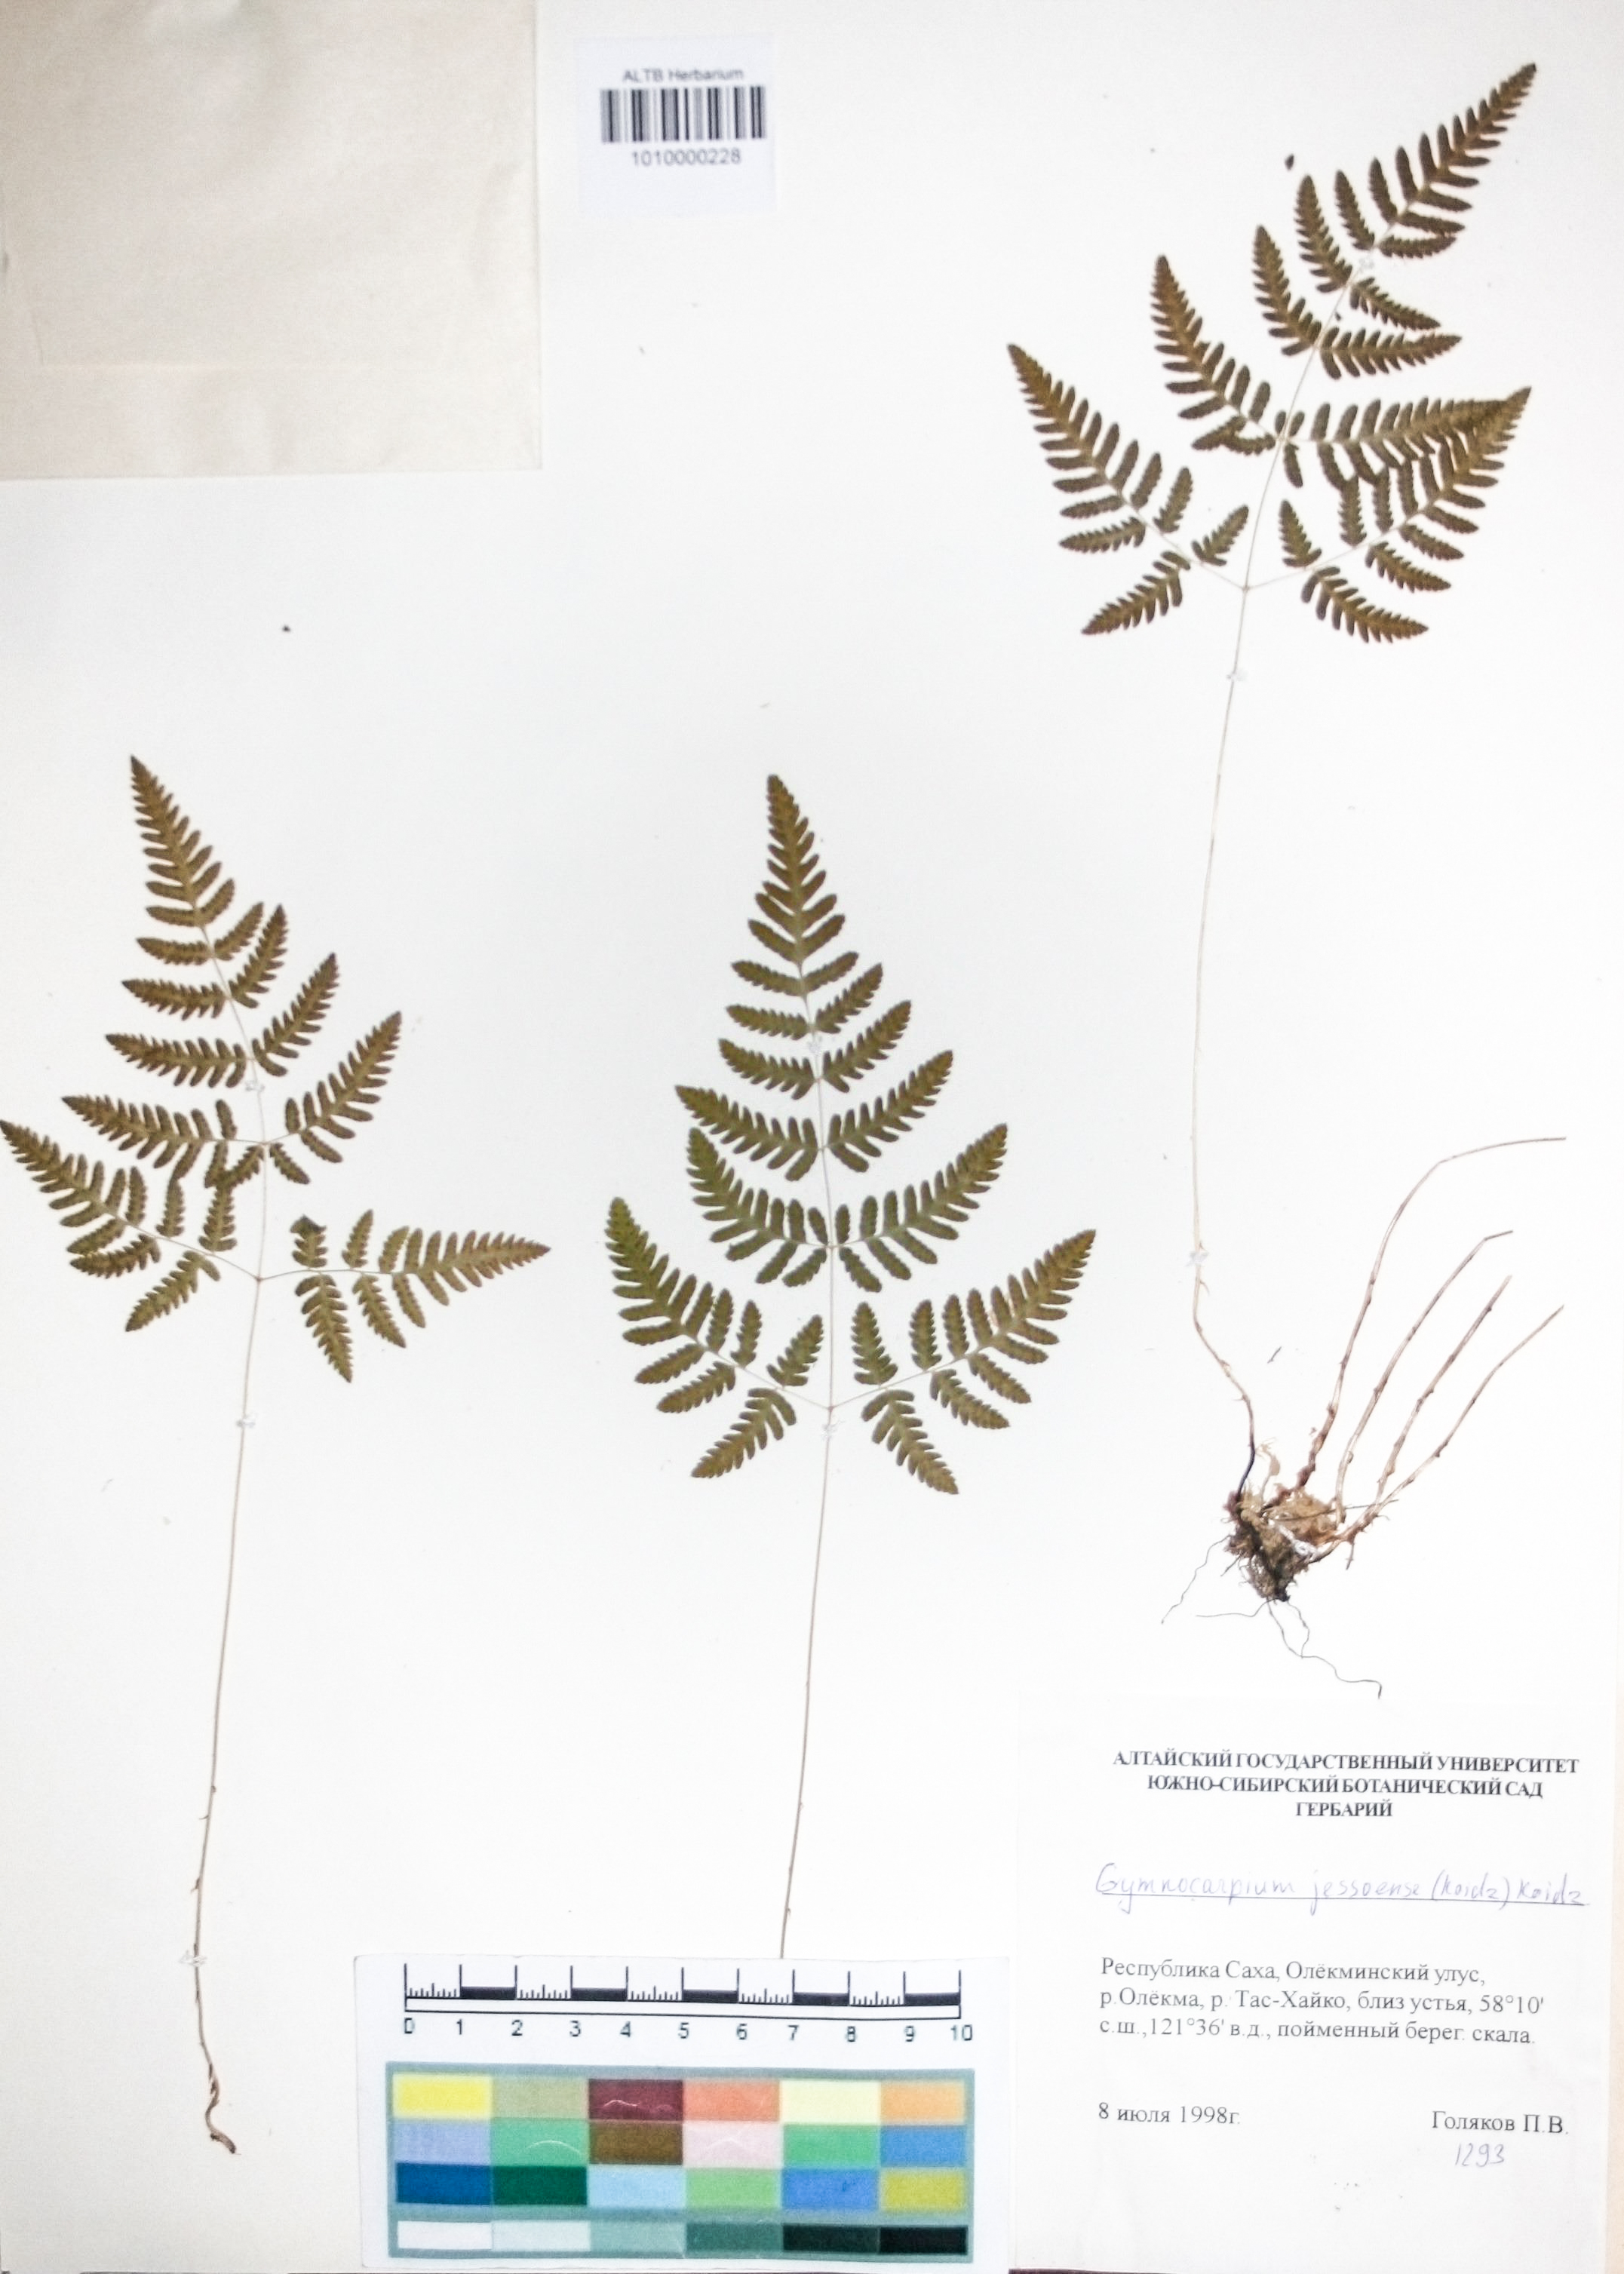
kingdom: Plantae
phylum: Tracheophyta
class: Polypodiopsida
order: Polypodiales
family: Cystopteridaceae
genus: Gymnocarpium
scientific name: Gymnocarpium jessoense
